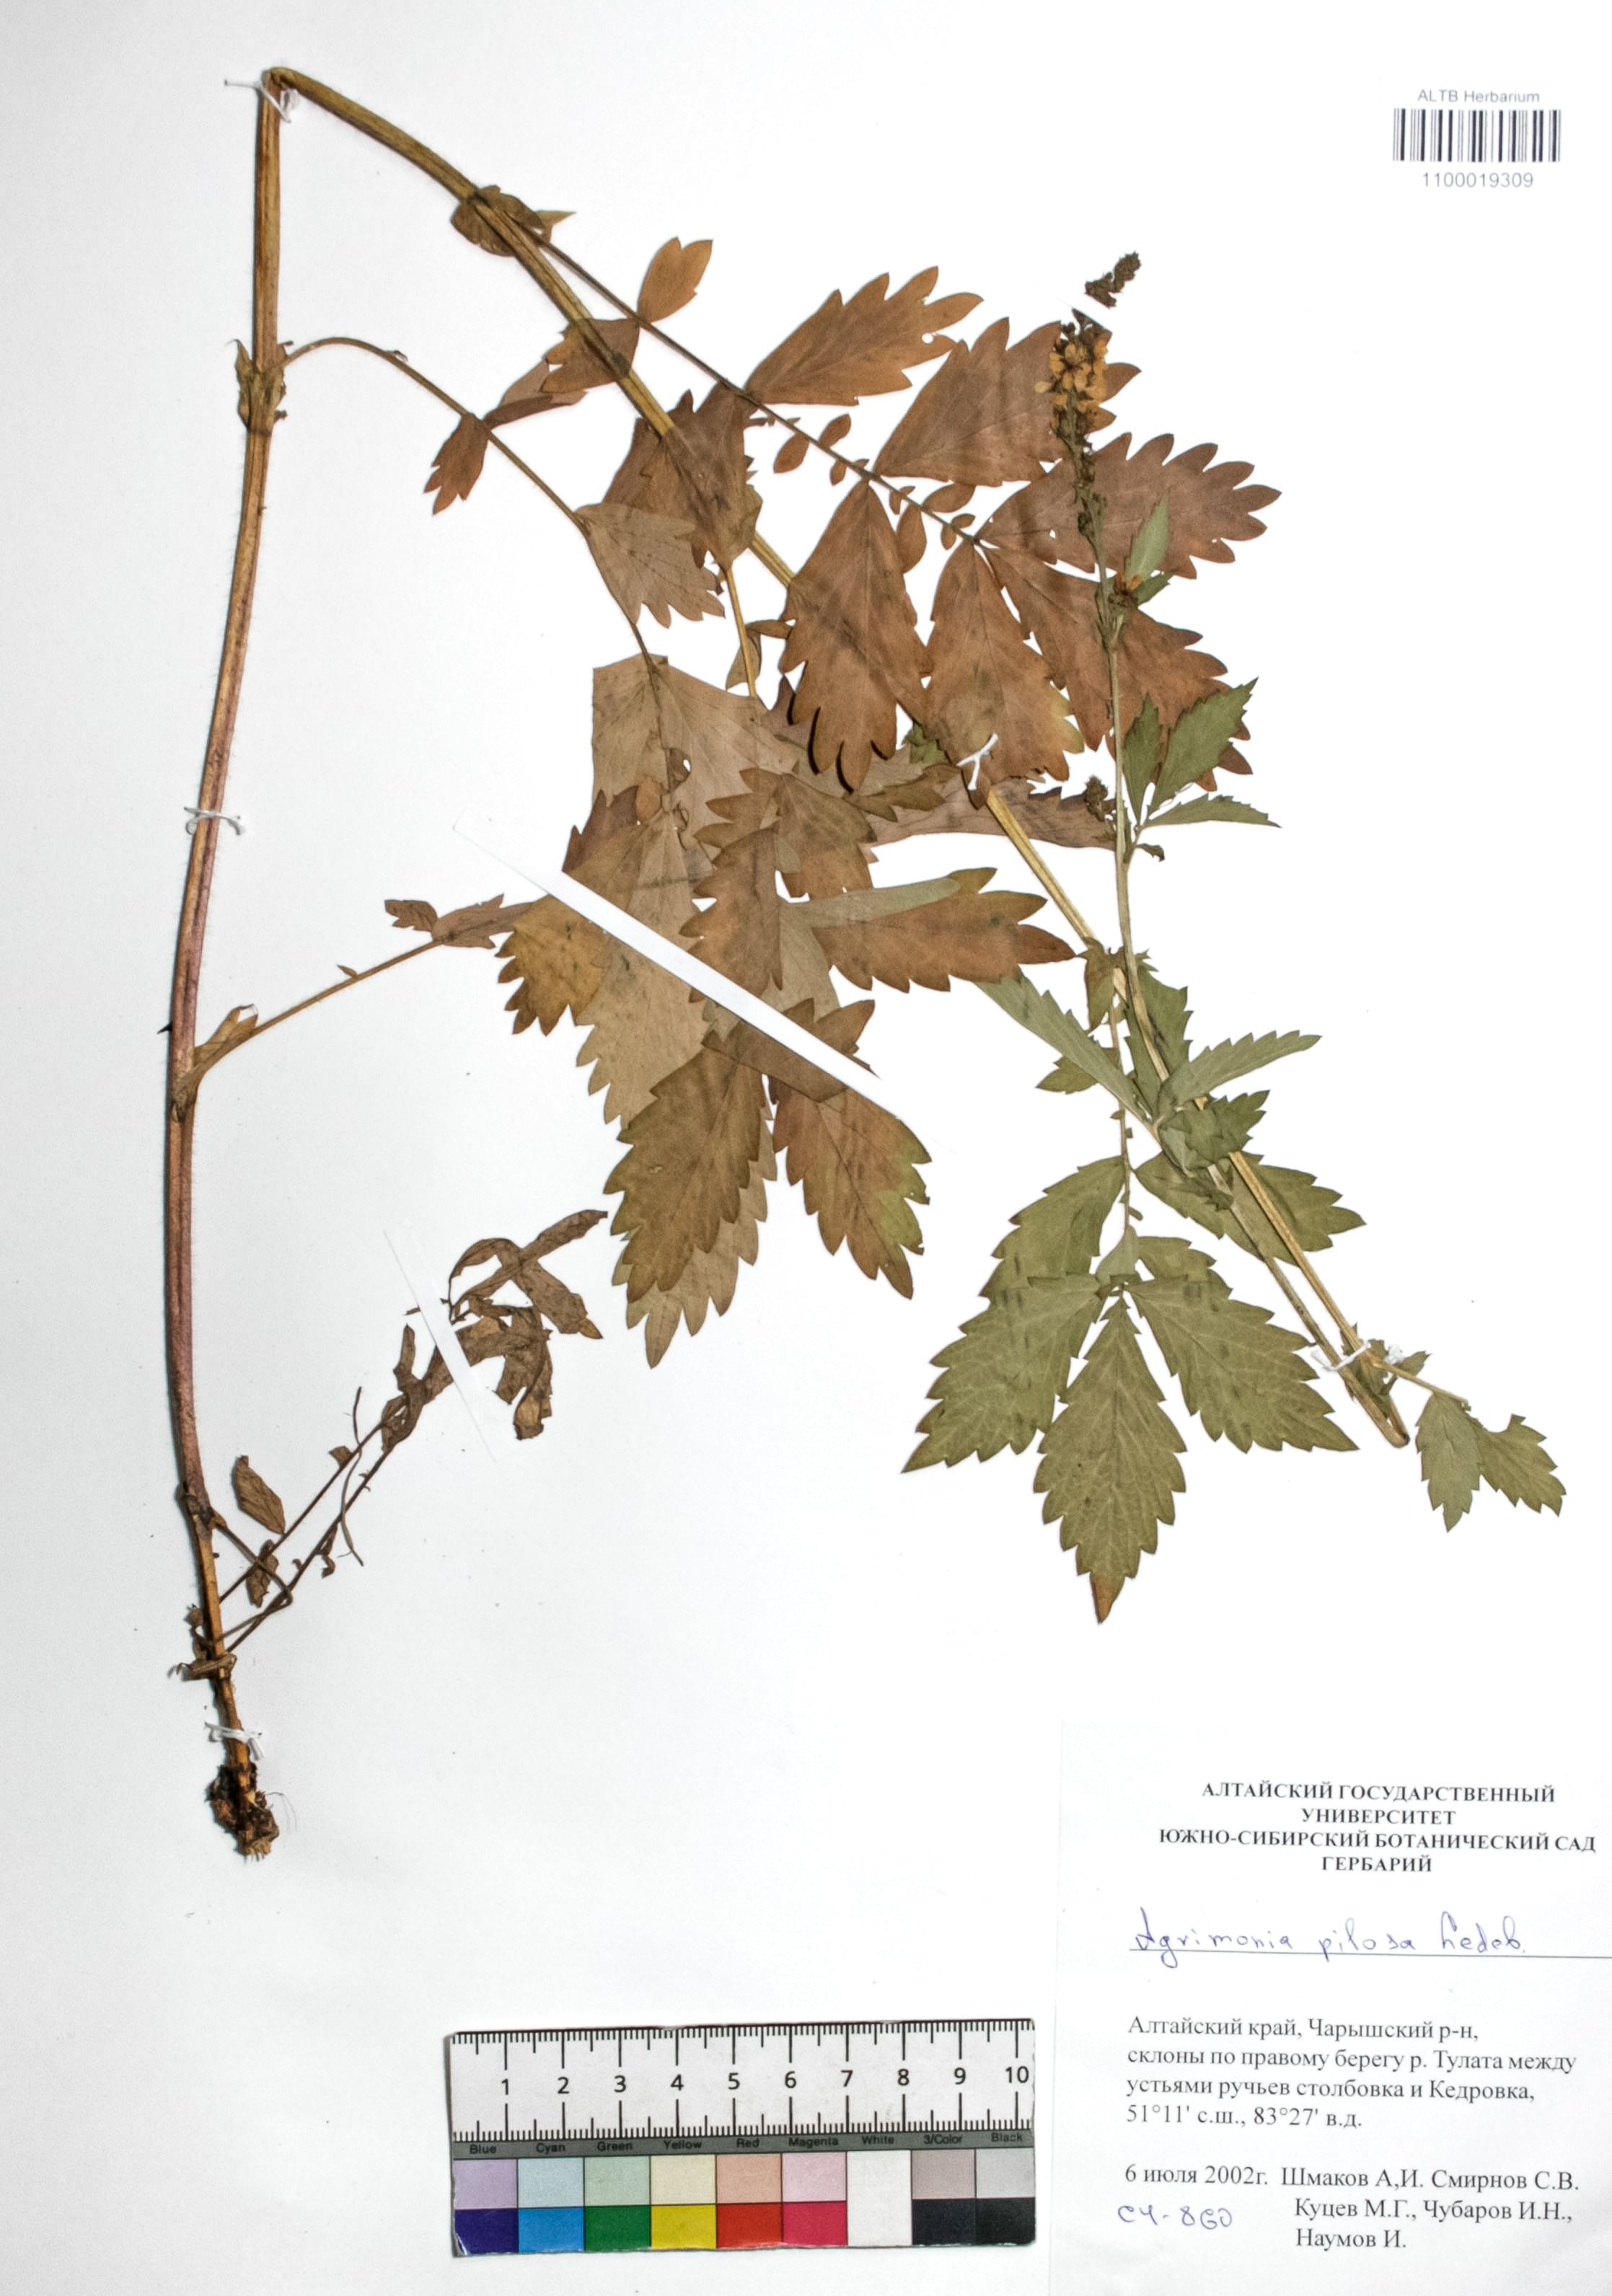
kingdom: Plantae
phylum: Tracheophyta
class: Magnoliopsida
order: Rosales
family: Rosaceae
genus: Agrimonia
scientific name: Agrimonia pilosa
